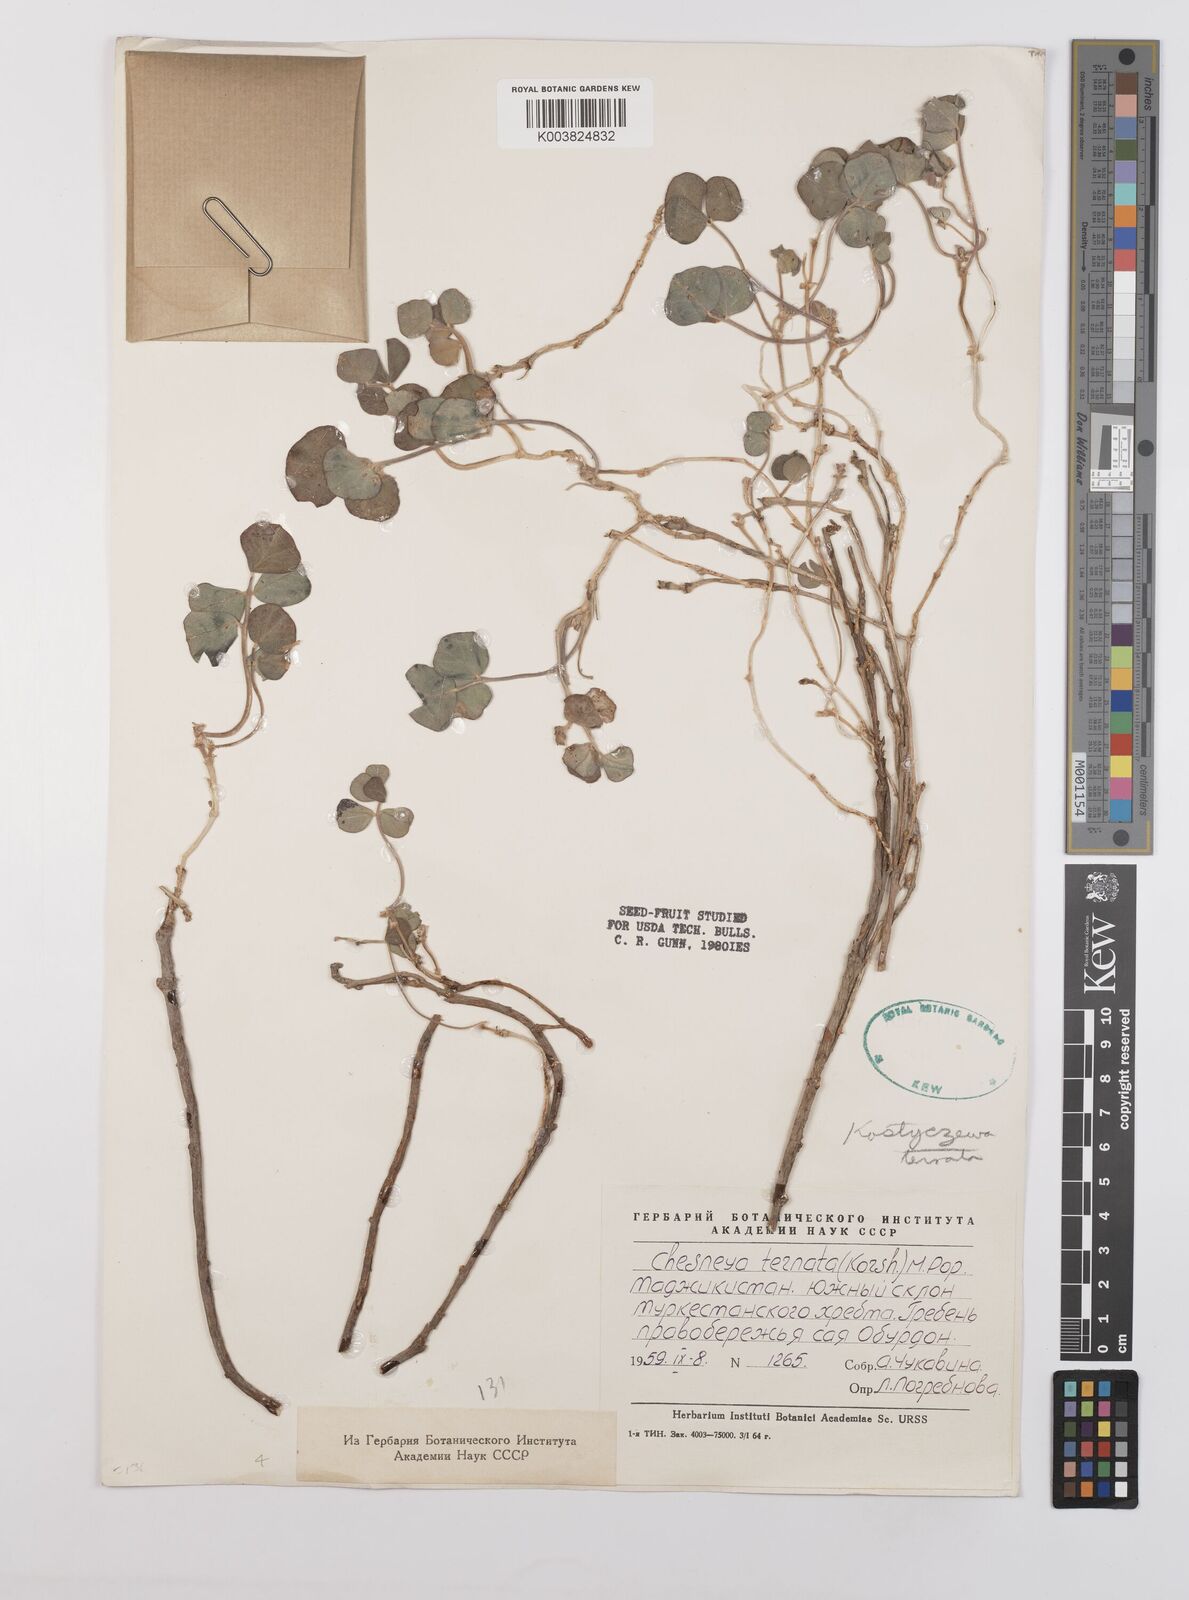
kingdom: Plantae
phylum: Tracheophyta
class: Magnoliopsida
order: Fabales
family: Fabaceae
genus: Chesneya
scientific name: Chesneya neplii
